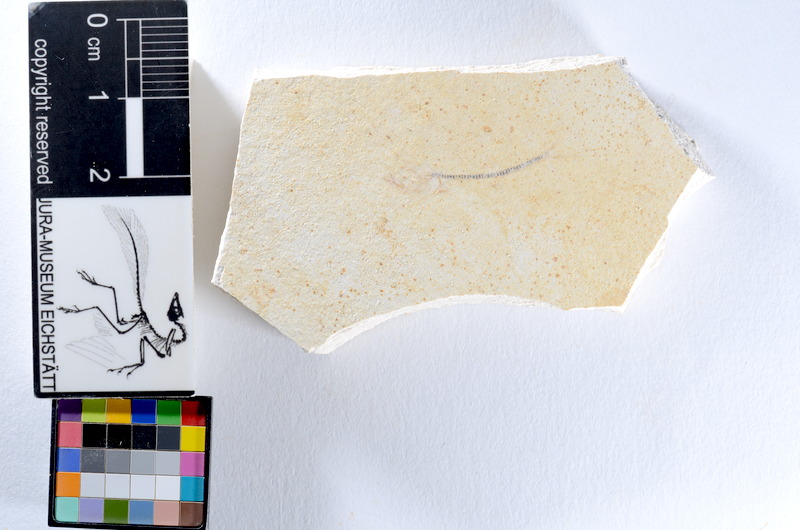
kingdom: Animalia
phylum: Chordata
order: Salmoniformes
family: Orthogonikleithridae
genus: Orthogonikleithrus
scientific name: Orthogonikleithrus hoelli
